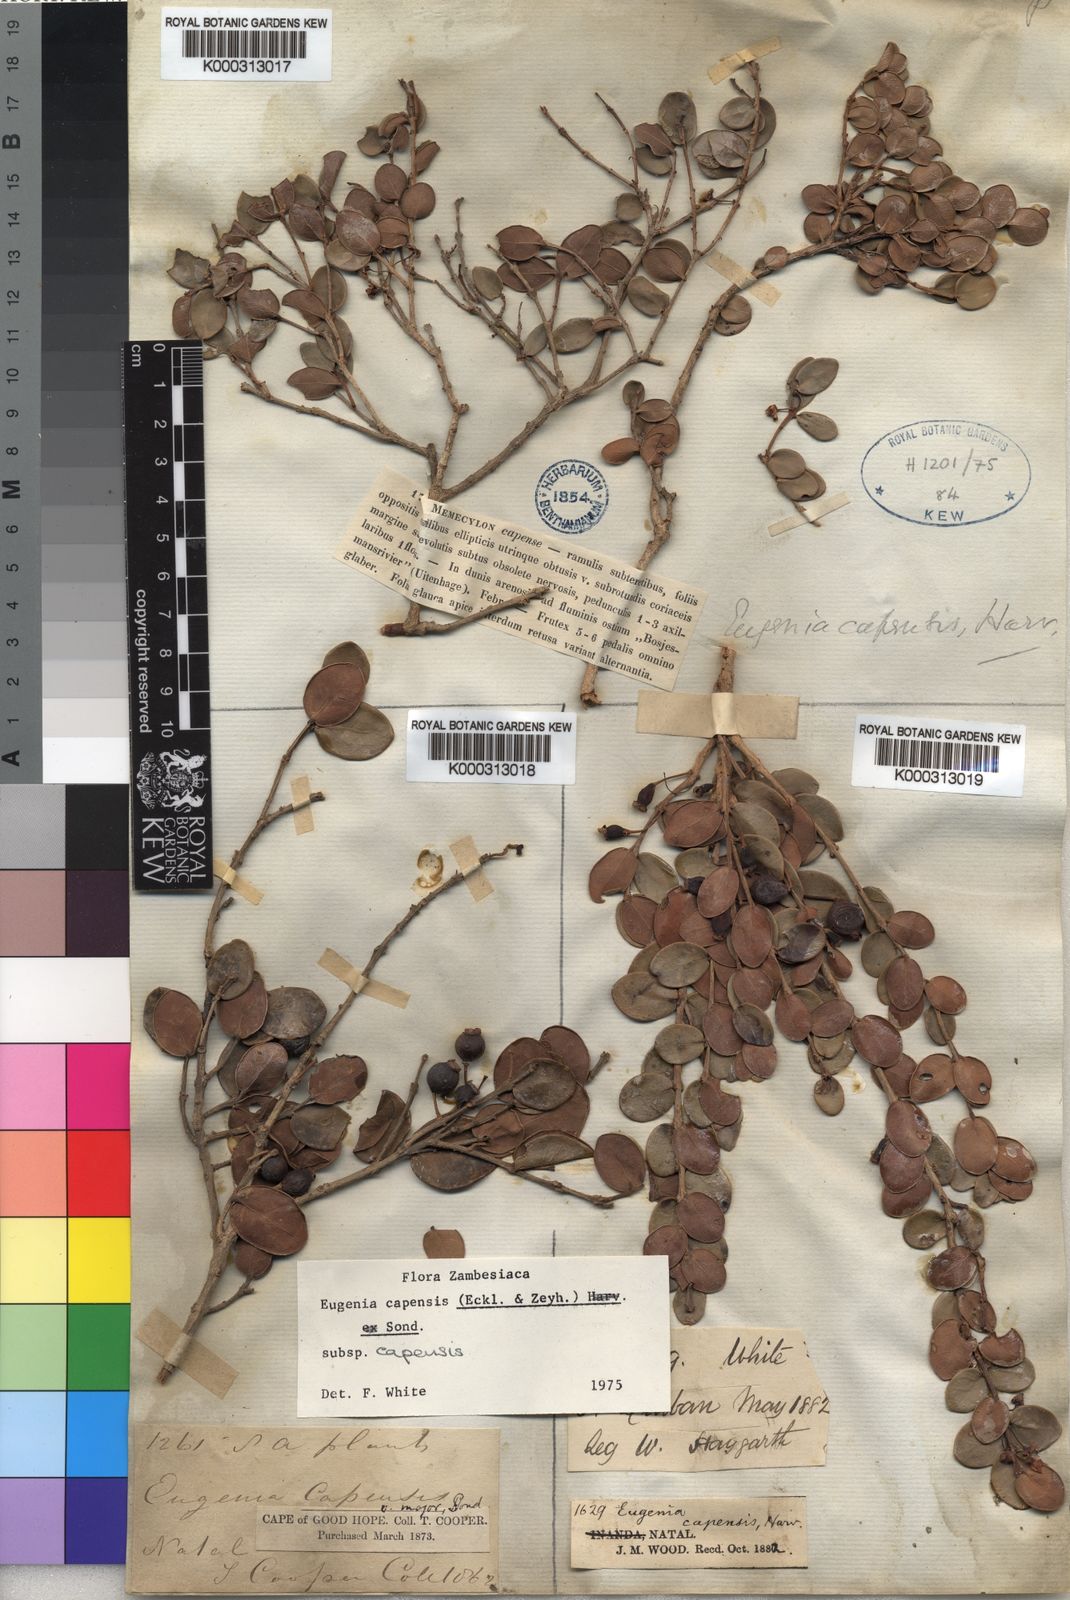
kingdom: Plantae
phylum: Tracheophyta
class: Magnoliopsida
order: Myrtales
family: Myrtaceae
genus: Eugenia
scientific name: Eugenia capensis
